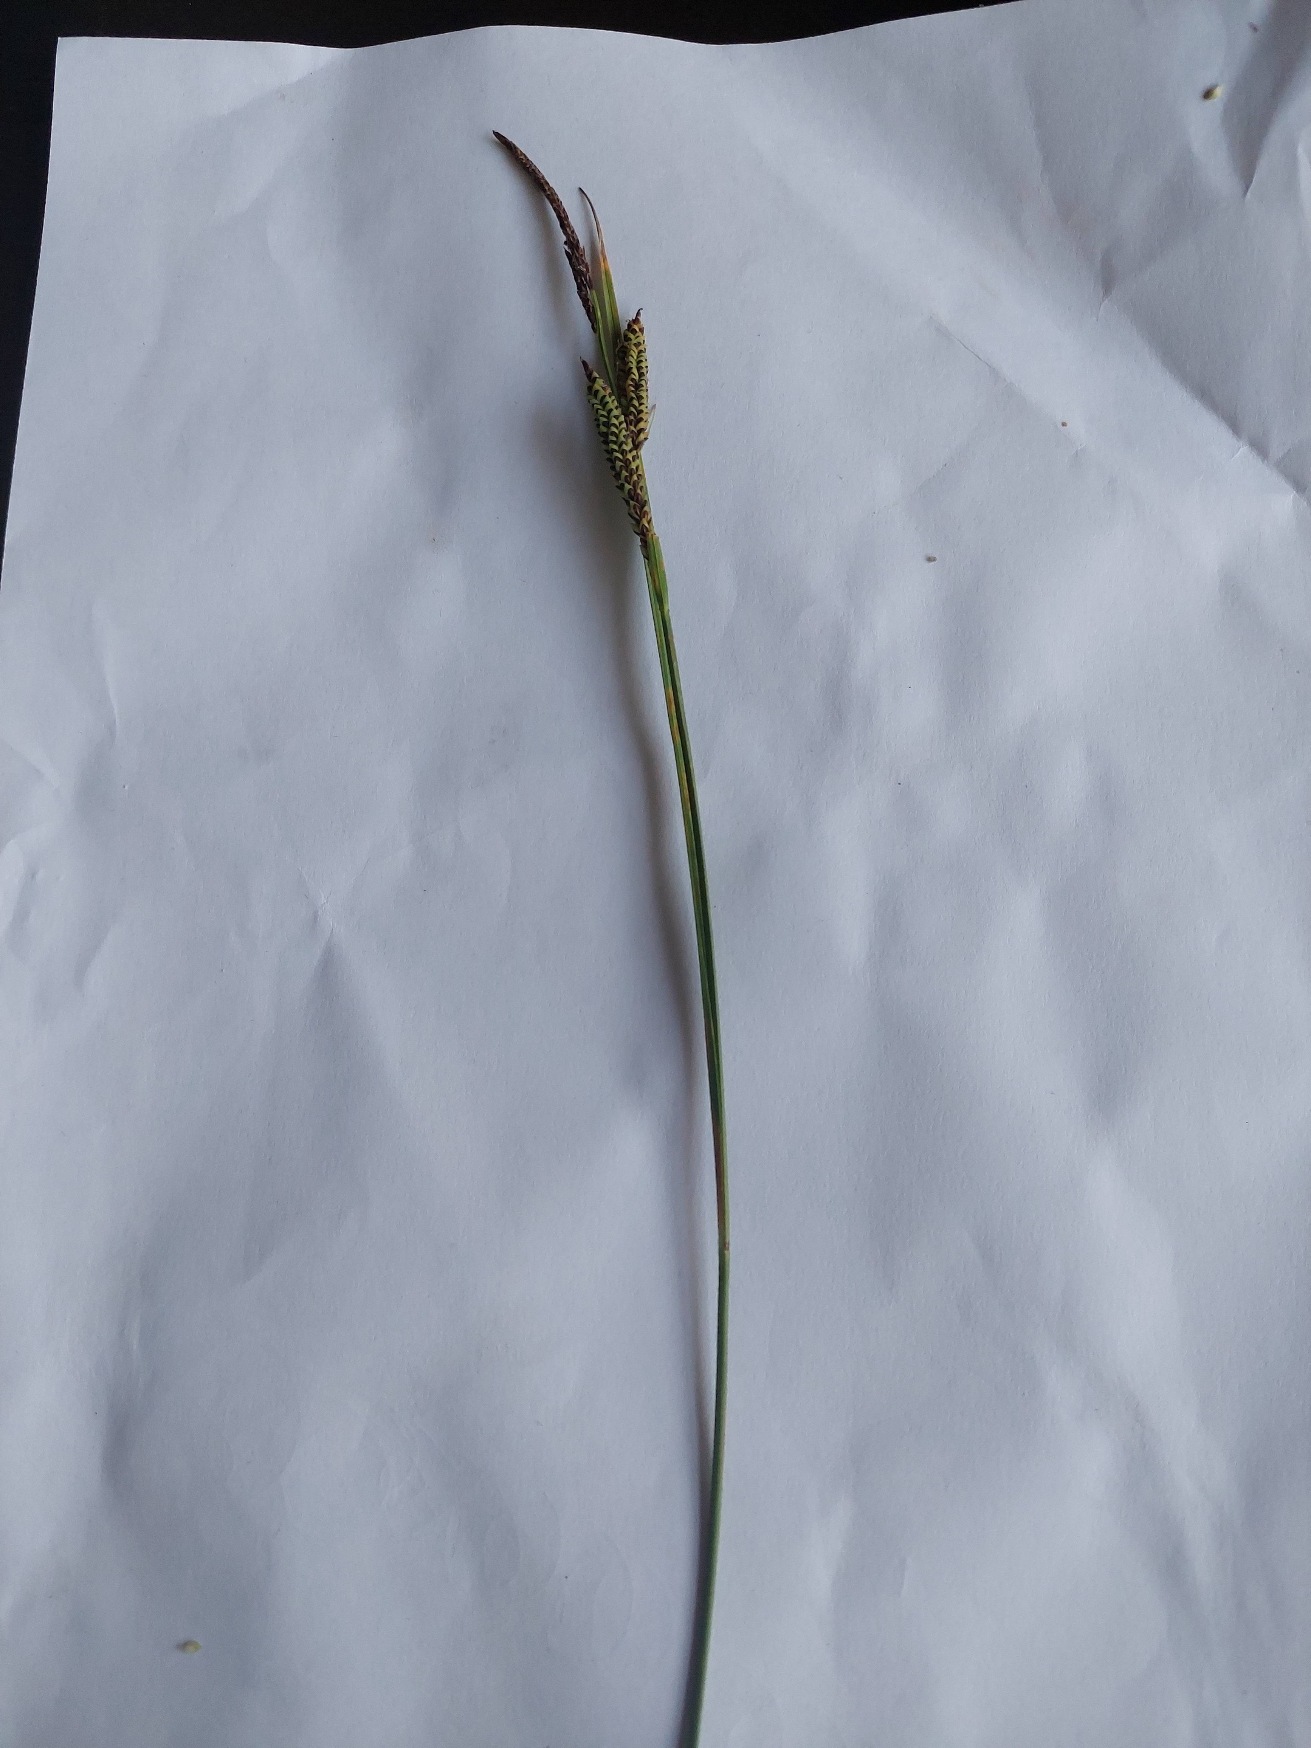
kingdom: Plantae
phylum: Tracheophyta
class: Liliopsida
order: Poales
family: Cyperaceae
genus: Carex
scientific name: Carex nigra
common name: Almindelig star
